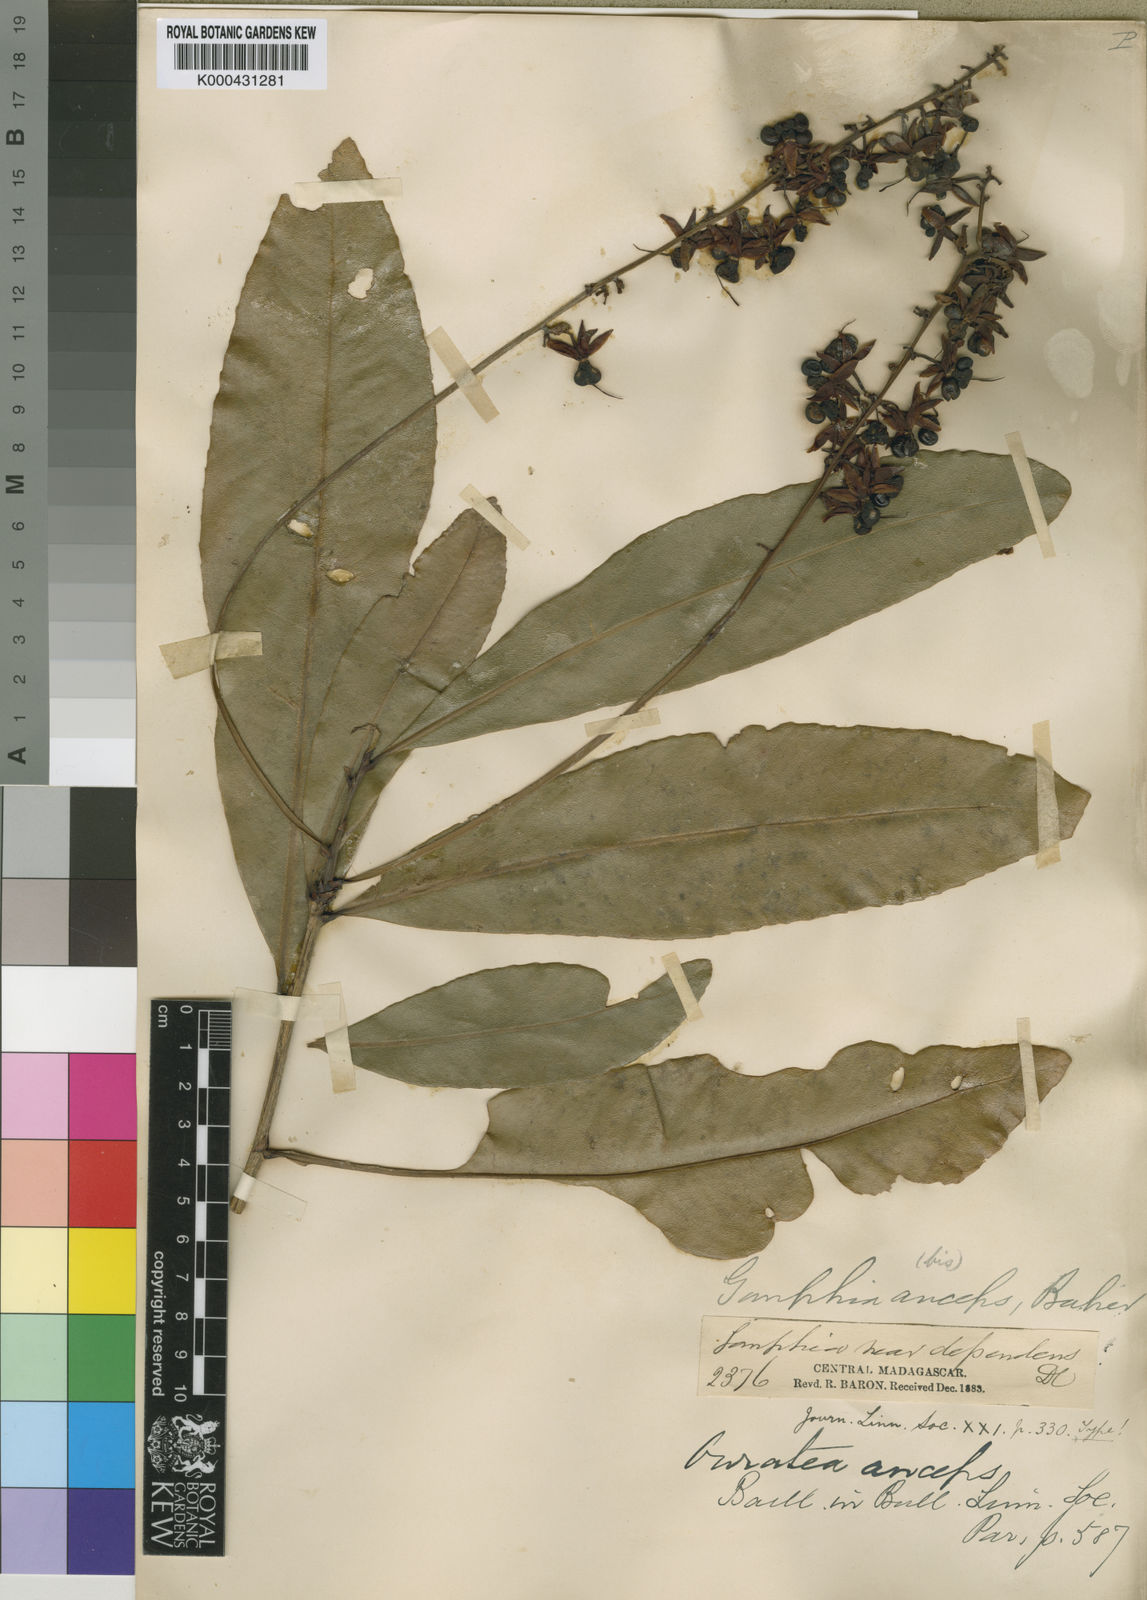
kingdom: Plantae
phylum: Tracheophyta
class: Magnoliopsida
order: Malpighiales
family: Ochnaceae
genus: Campylospermum
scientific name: Campylospermum anceps
